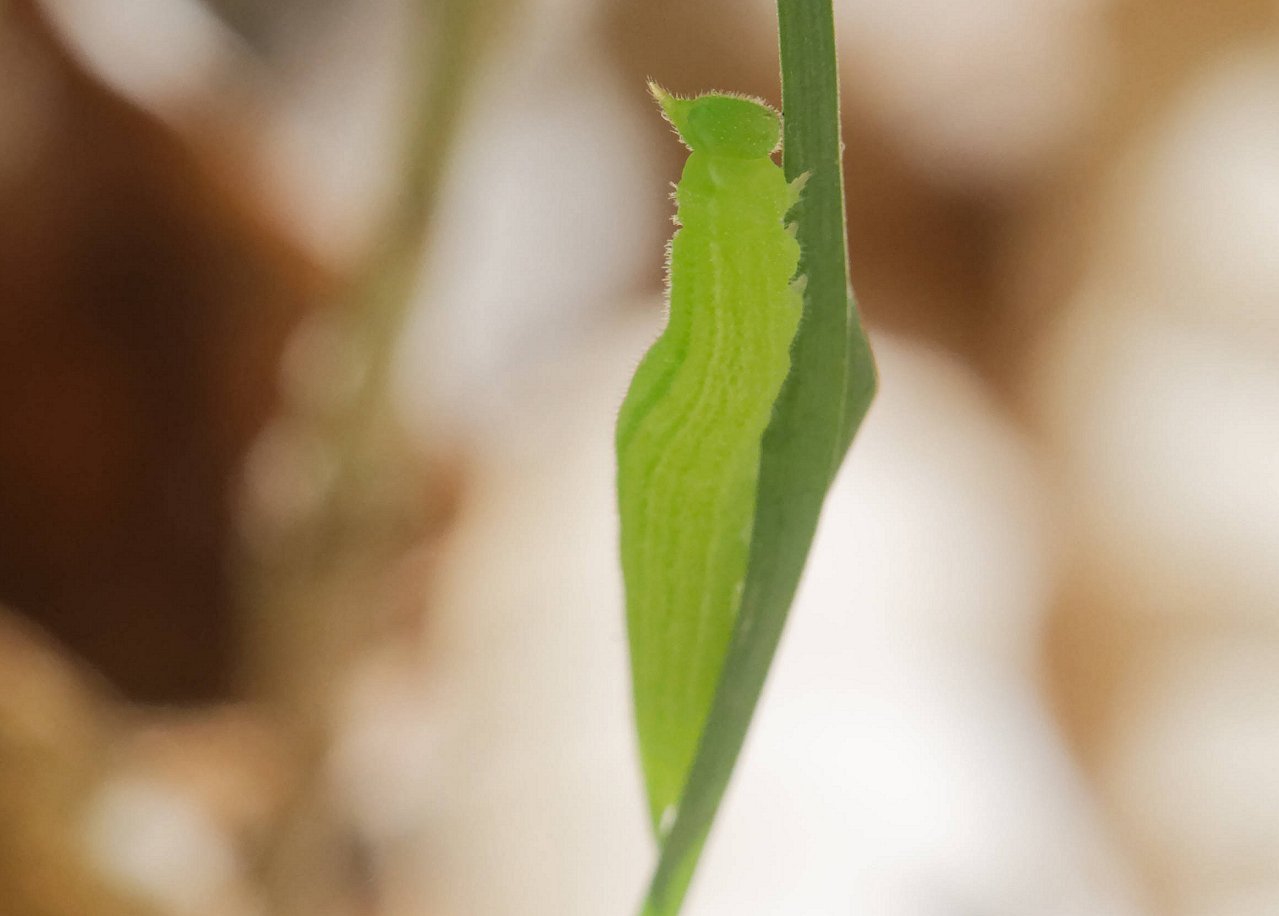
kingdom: Animalia
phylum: Arthropoda
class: Insecta
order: Lepidoptera
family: Nymphalidae
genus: Lethe
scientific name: Lethe anthedon
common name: Northern Pearly-Eye
